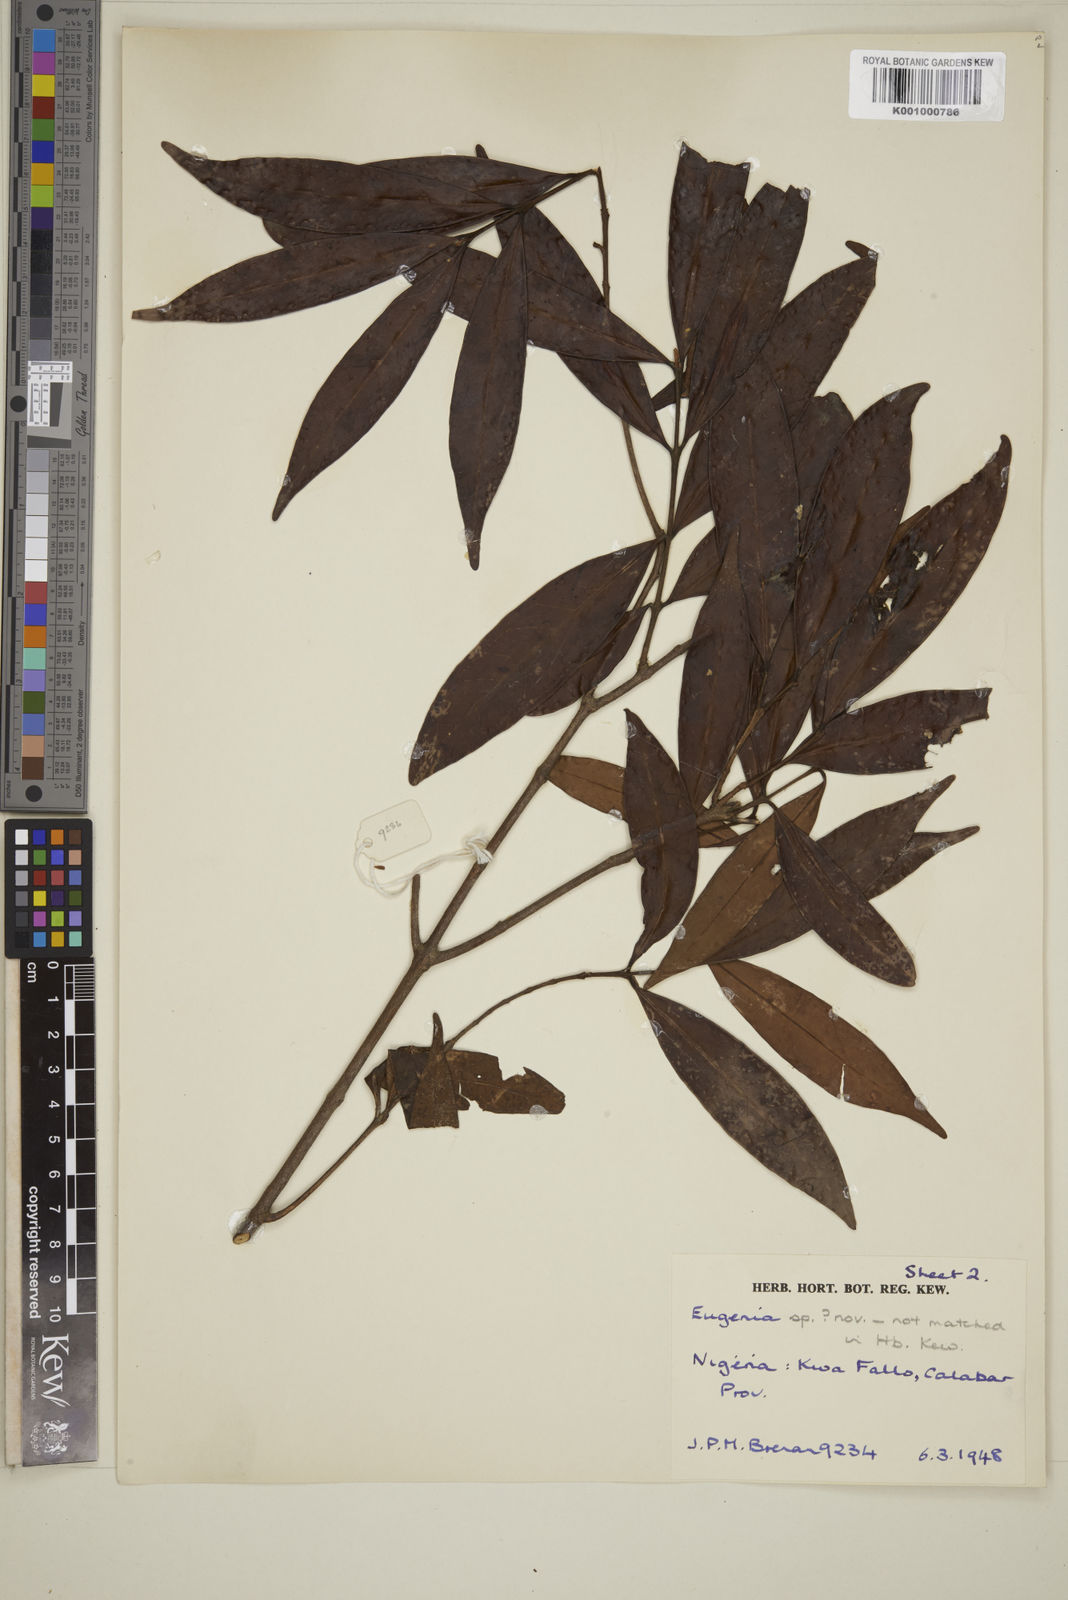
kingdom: Plantae
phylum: Tracheophyta
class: Magnoliopsida
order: Myrtales
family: Myrtaceae
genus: Eugenia
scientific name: Eugenia
